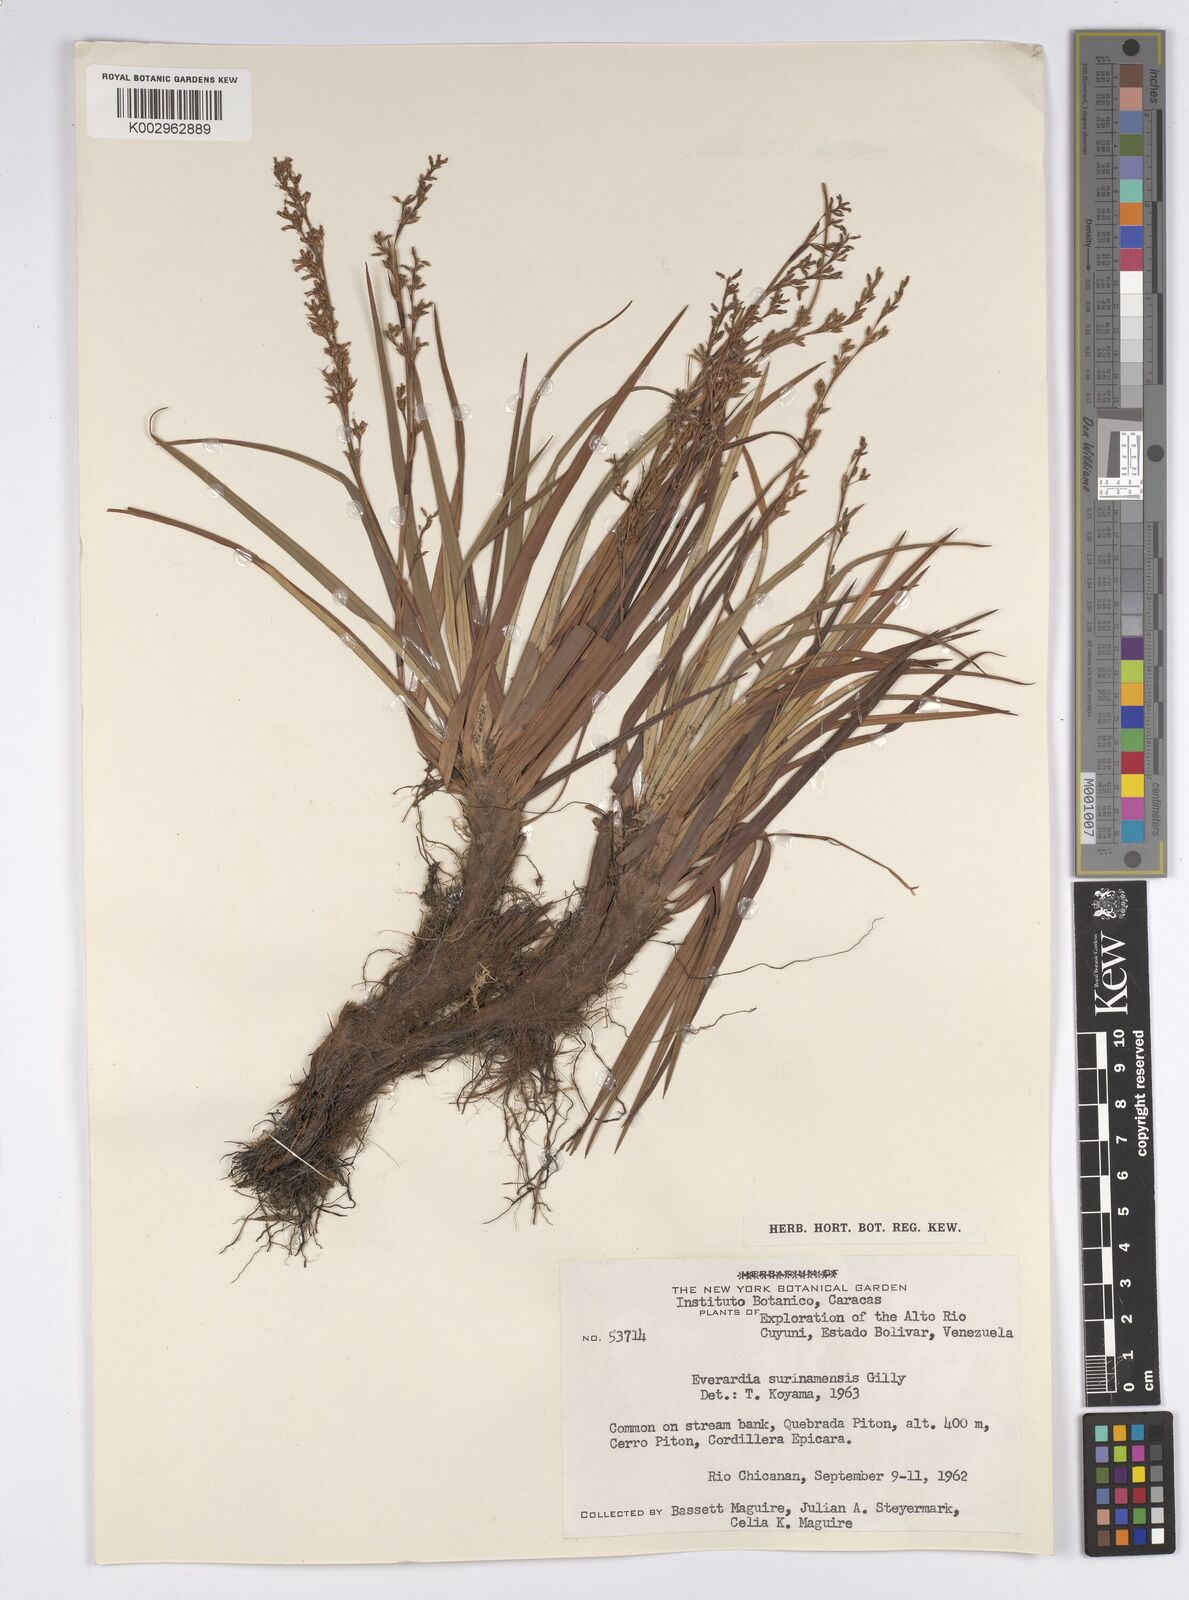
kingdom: Plantae
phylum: Tracheophyta
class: Liliopsida
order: Poales
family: Cyperaceae
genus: Cephalocarpus
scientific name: Cephalocarpus montanus
